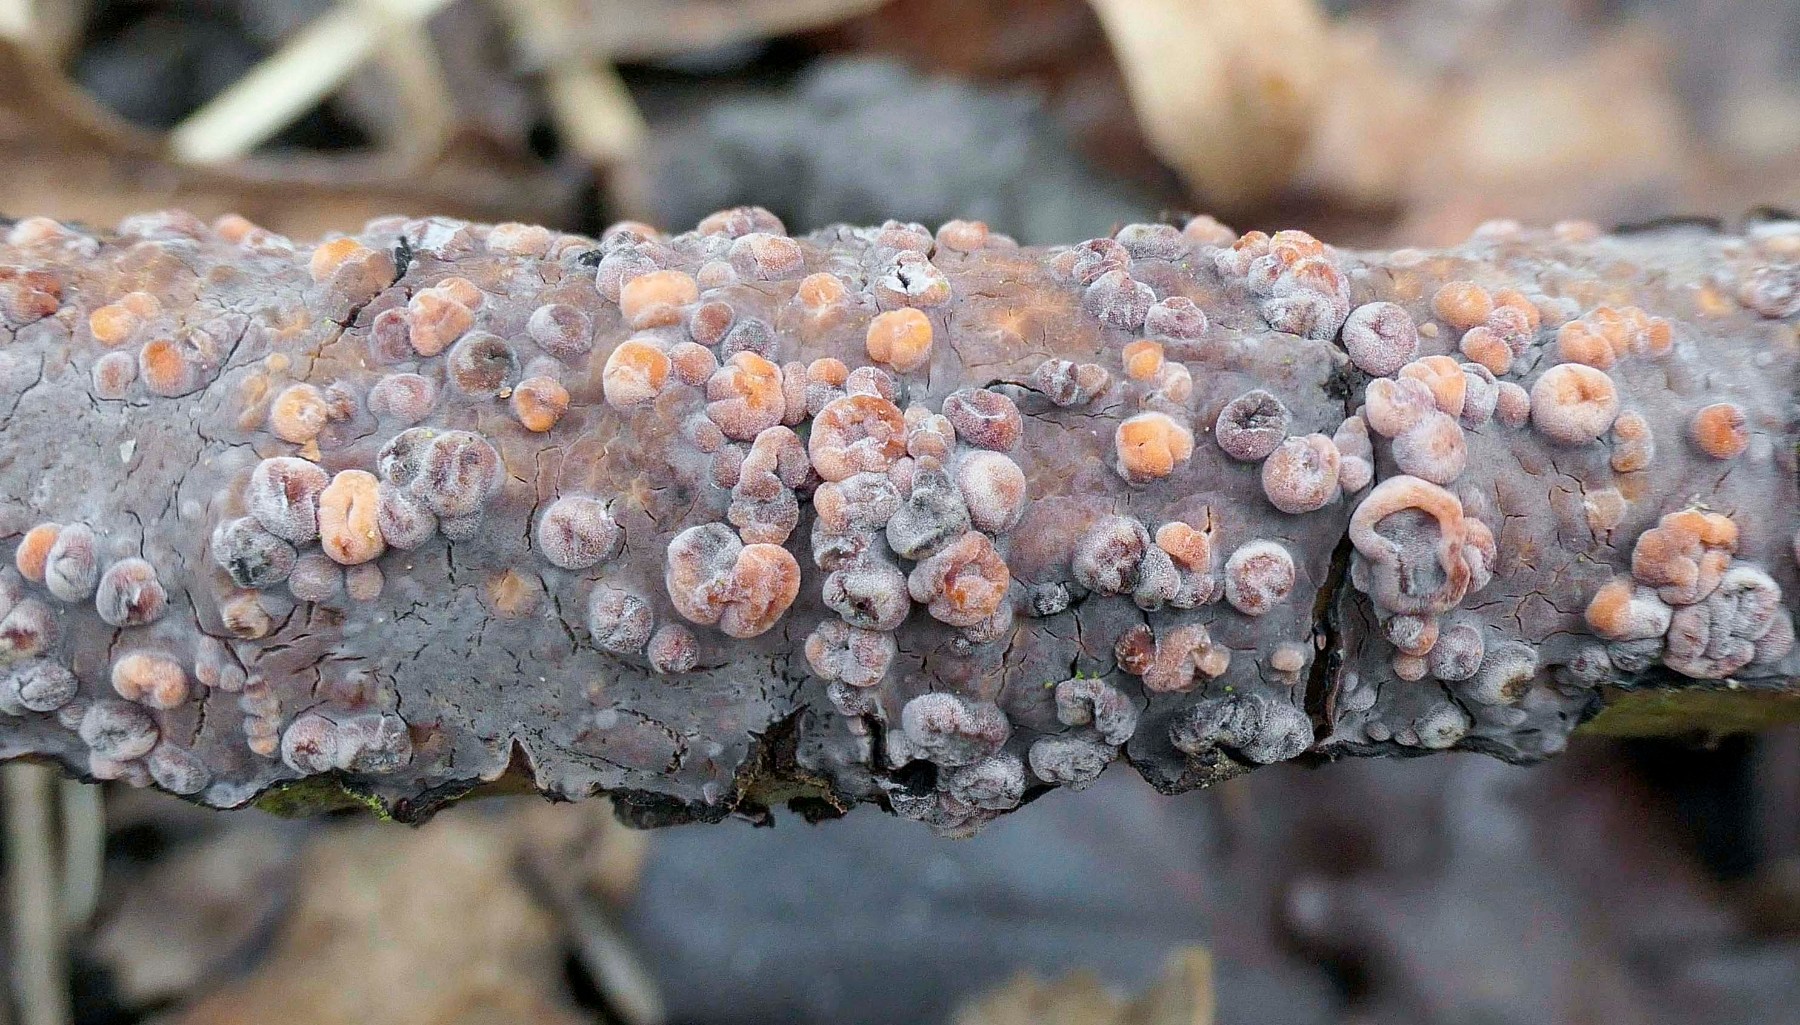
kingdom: Fungi
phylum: Basidiomycota
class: Pucciniomycetes
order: Platygloeales
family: Platygloeaceae
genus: Platygloea
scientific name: Platygloea
